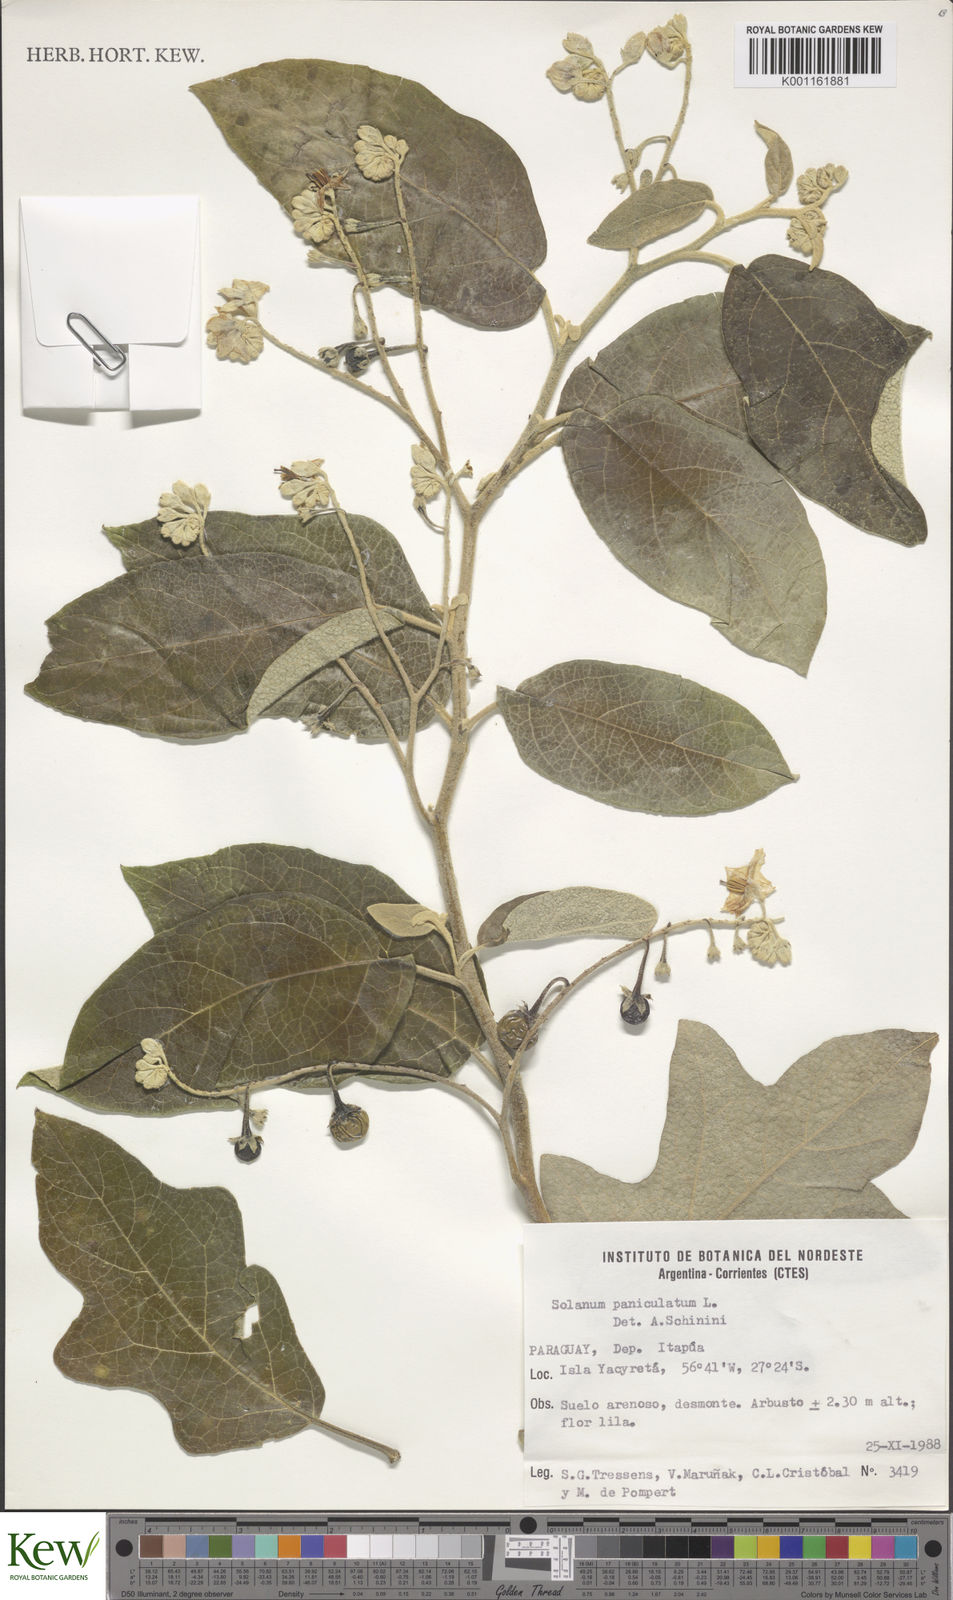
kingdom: Plantae
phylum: Tracheophyta
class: Magnoliopsida
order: Solanales
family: Solanaceae
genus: Solanum
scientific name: Solanum paniculatum
